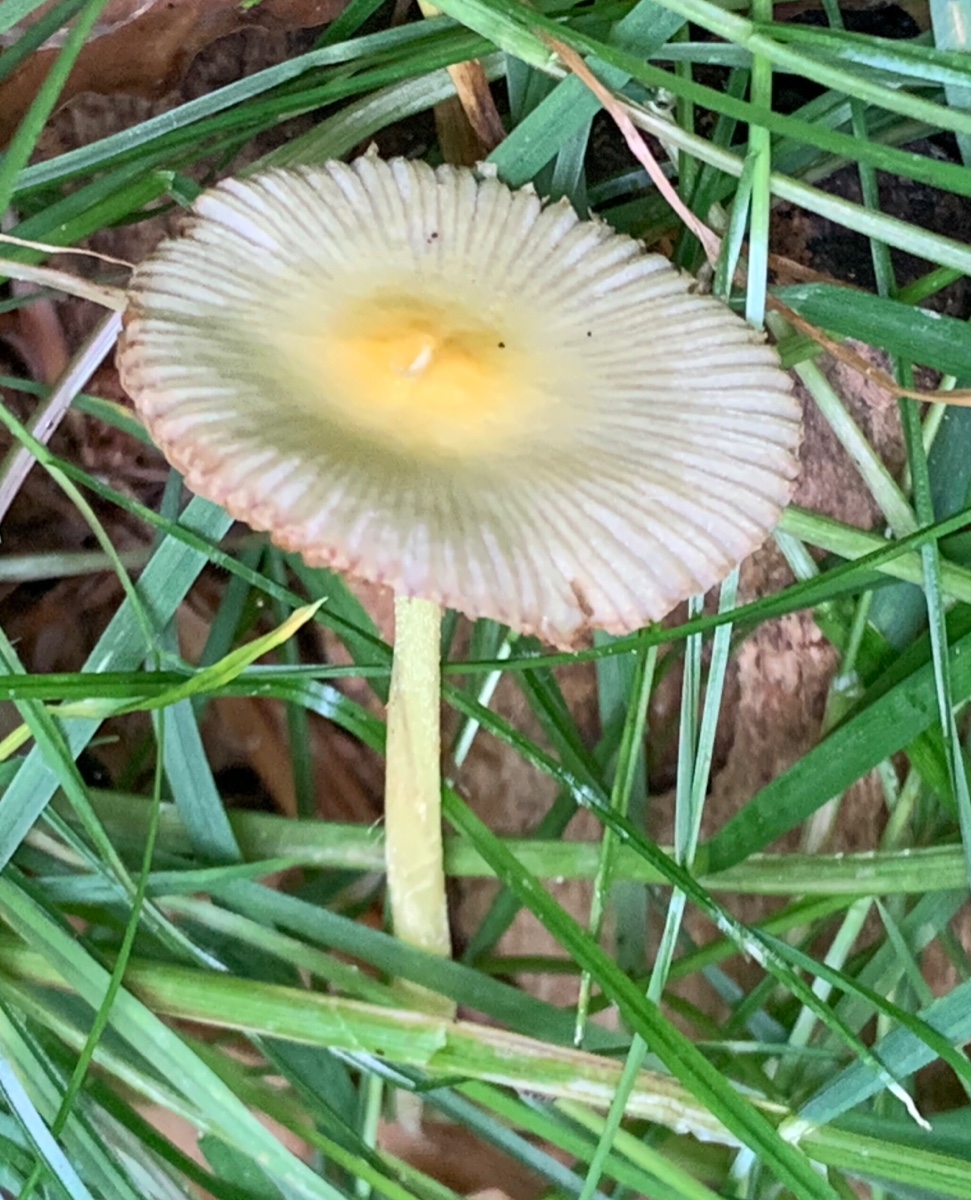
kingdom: Fungi
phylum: Basidiomycota
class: Agaricomycetes
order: Agaricales
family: Bolbitiaceae
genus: Bolbitius
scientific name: Bolbitius titubans
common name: almindelig gulhat
